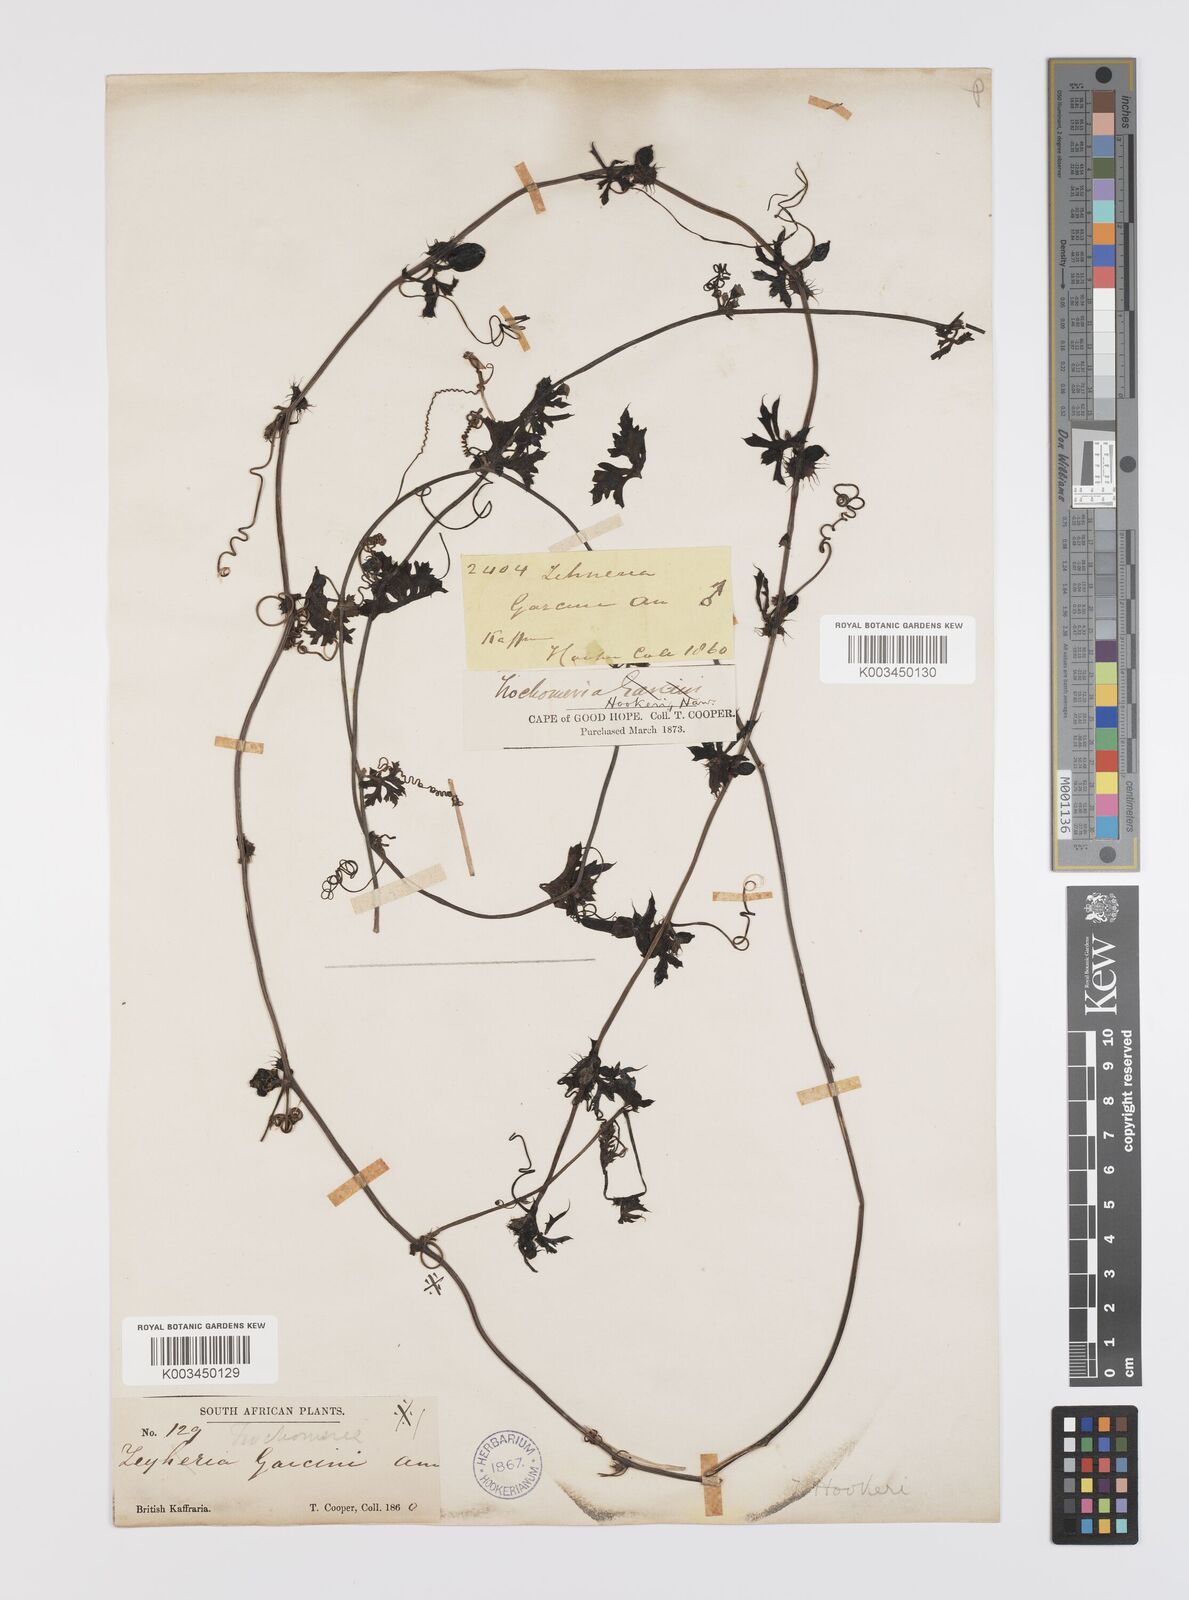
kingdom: Plantae
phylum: Tracheophyta
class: Magnoliopsida
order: Cucurbitales
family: Cucurbitaceae
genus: Trochomeria
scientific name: Trochomeria hookeri
